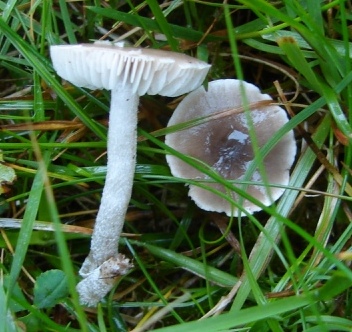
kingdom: Fungi
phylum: Basidiomycota
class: Agaricomycetes
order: Agaricales
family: Tricholomataceae
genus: Dermoloma
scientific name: Dermoloma cuneifolium
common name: eng-nonnehat
